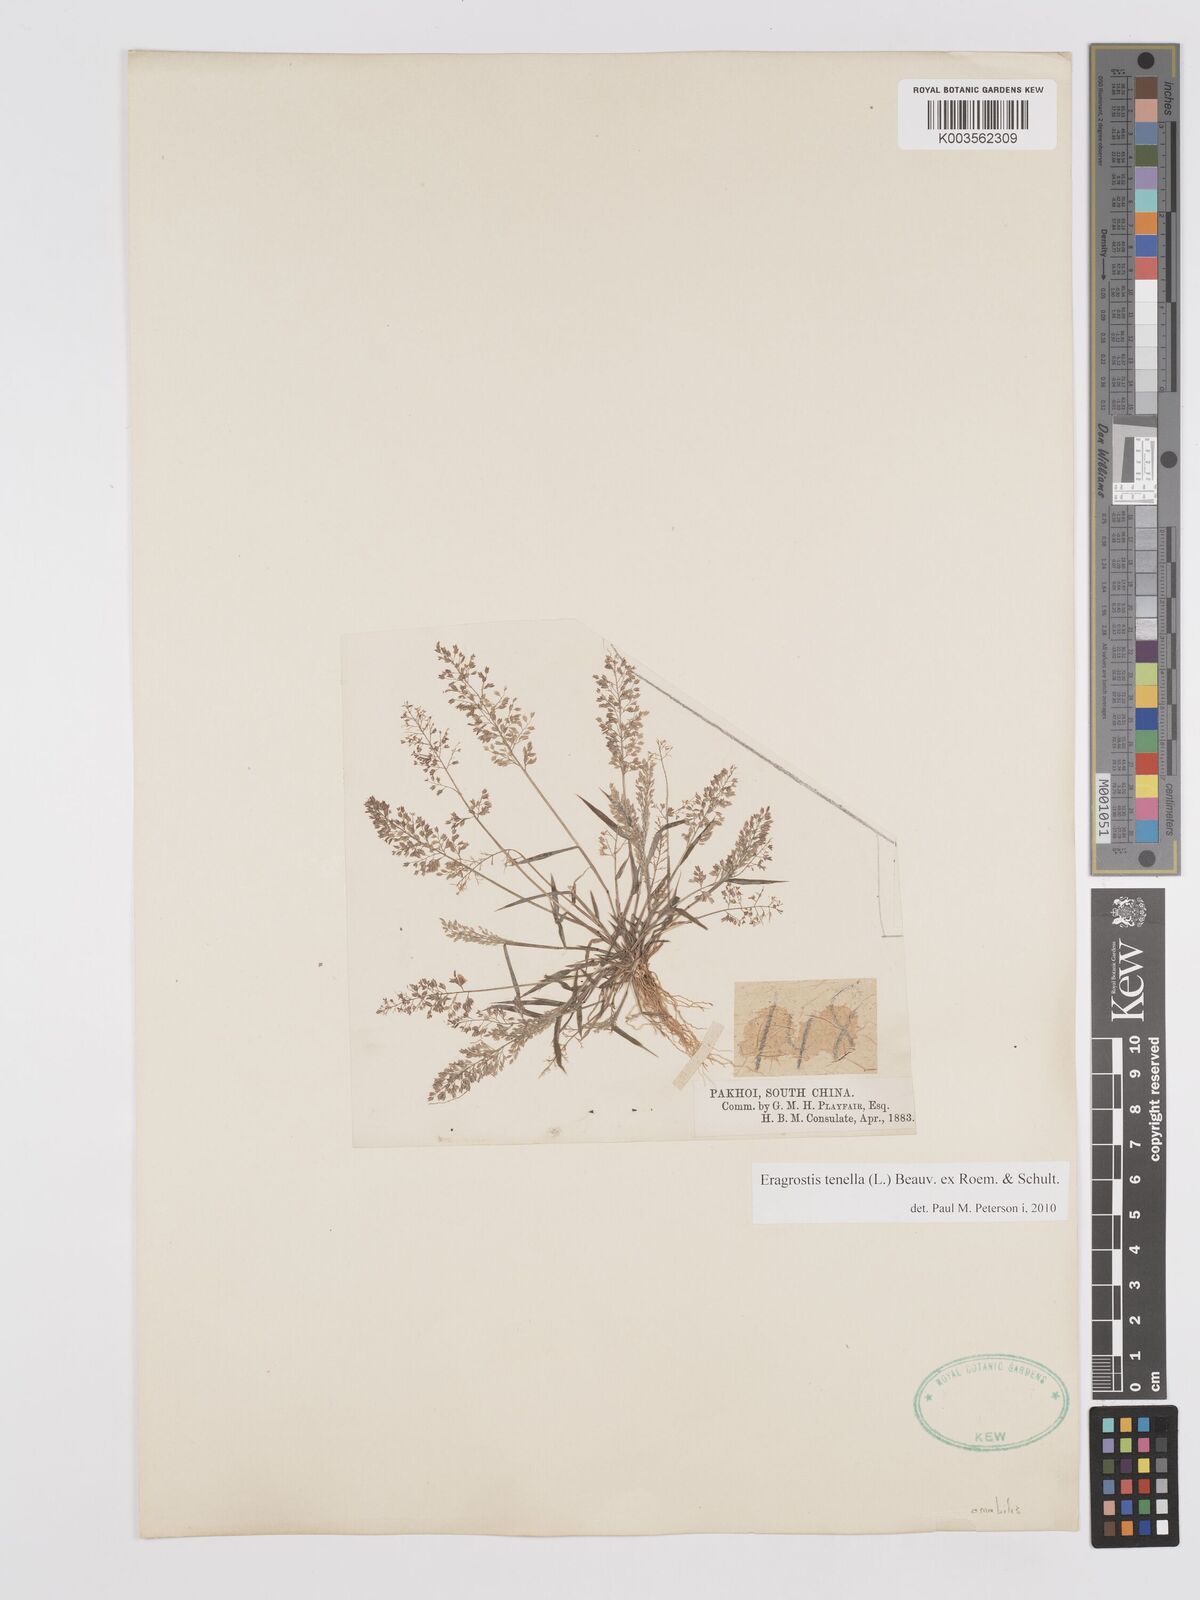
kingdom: Plantae
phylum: Tracheophyta
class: Liliopsida
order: Poales
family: Poaceae
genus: Eragrostis
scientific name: Eragrostis tenella
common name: Japanese lovegrass
